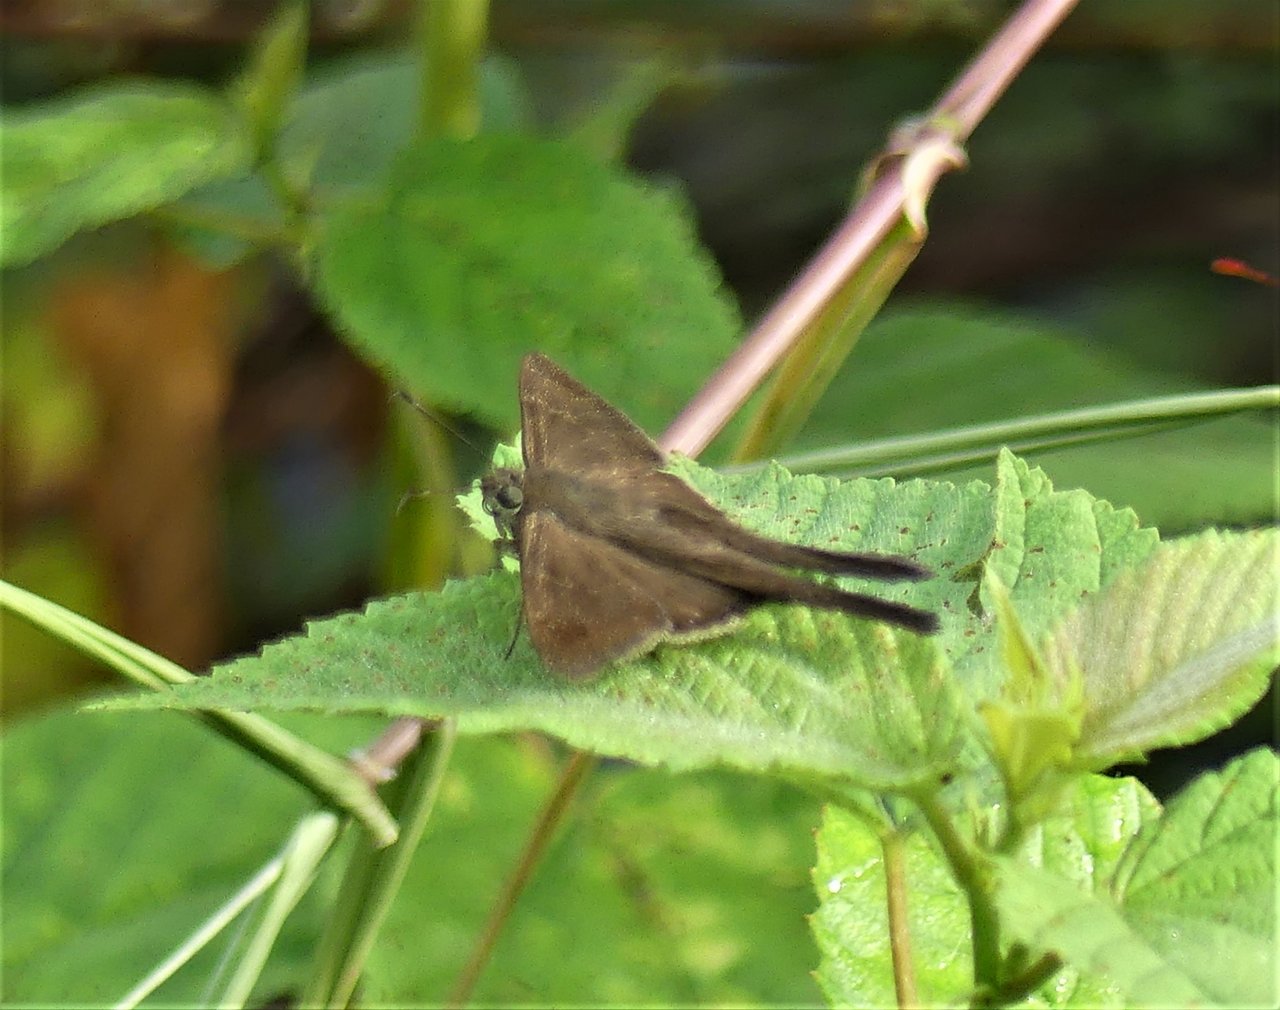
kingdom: Animalia
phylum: Arthropoda
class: Insecta
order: Lepidoptera
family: Hesperiidae
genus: Urbanus
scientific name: Urbanus procne
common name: Brown Longtail
